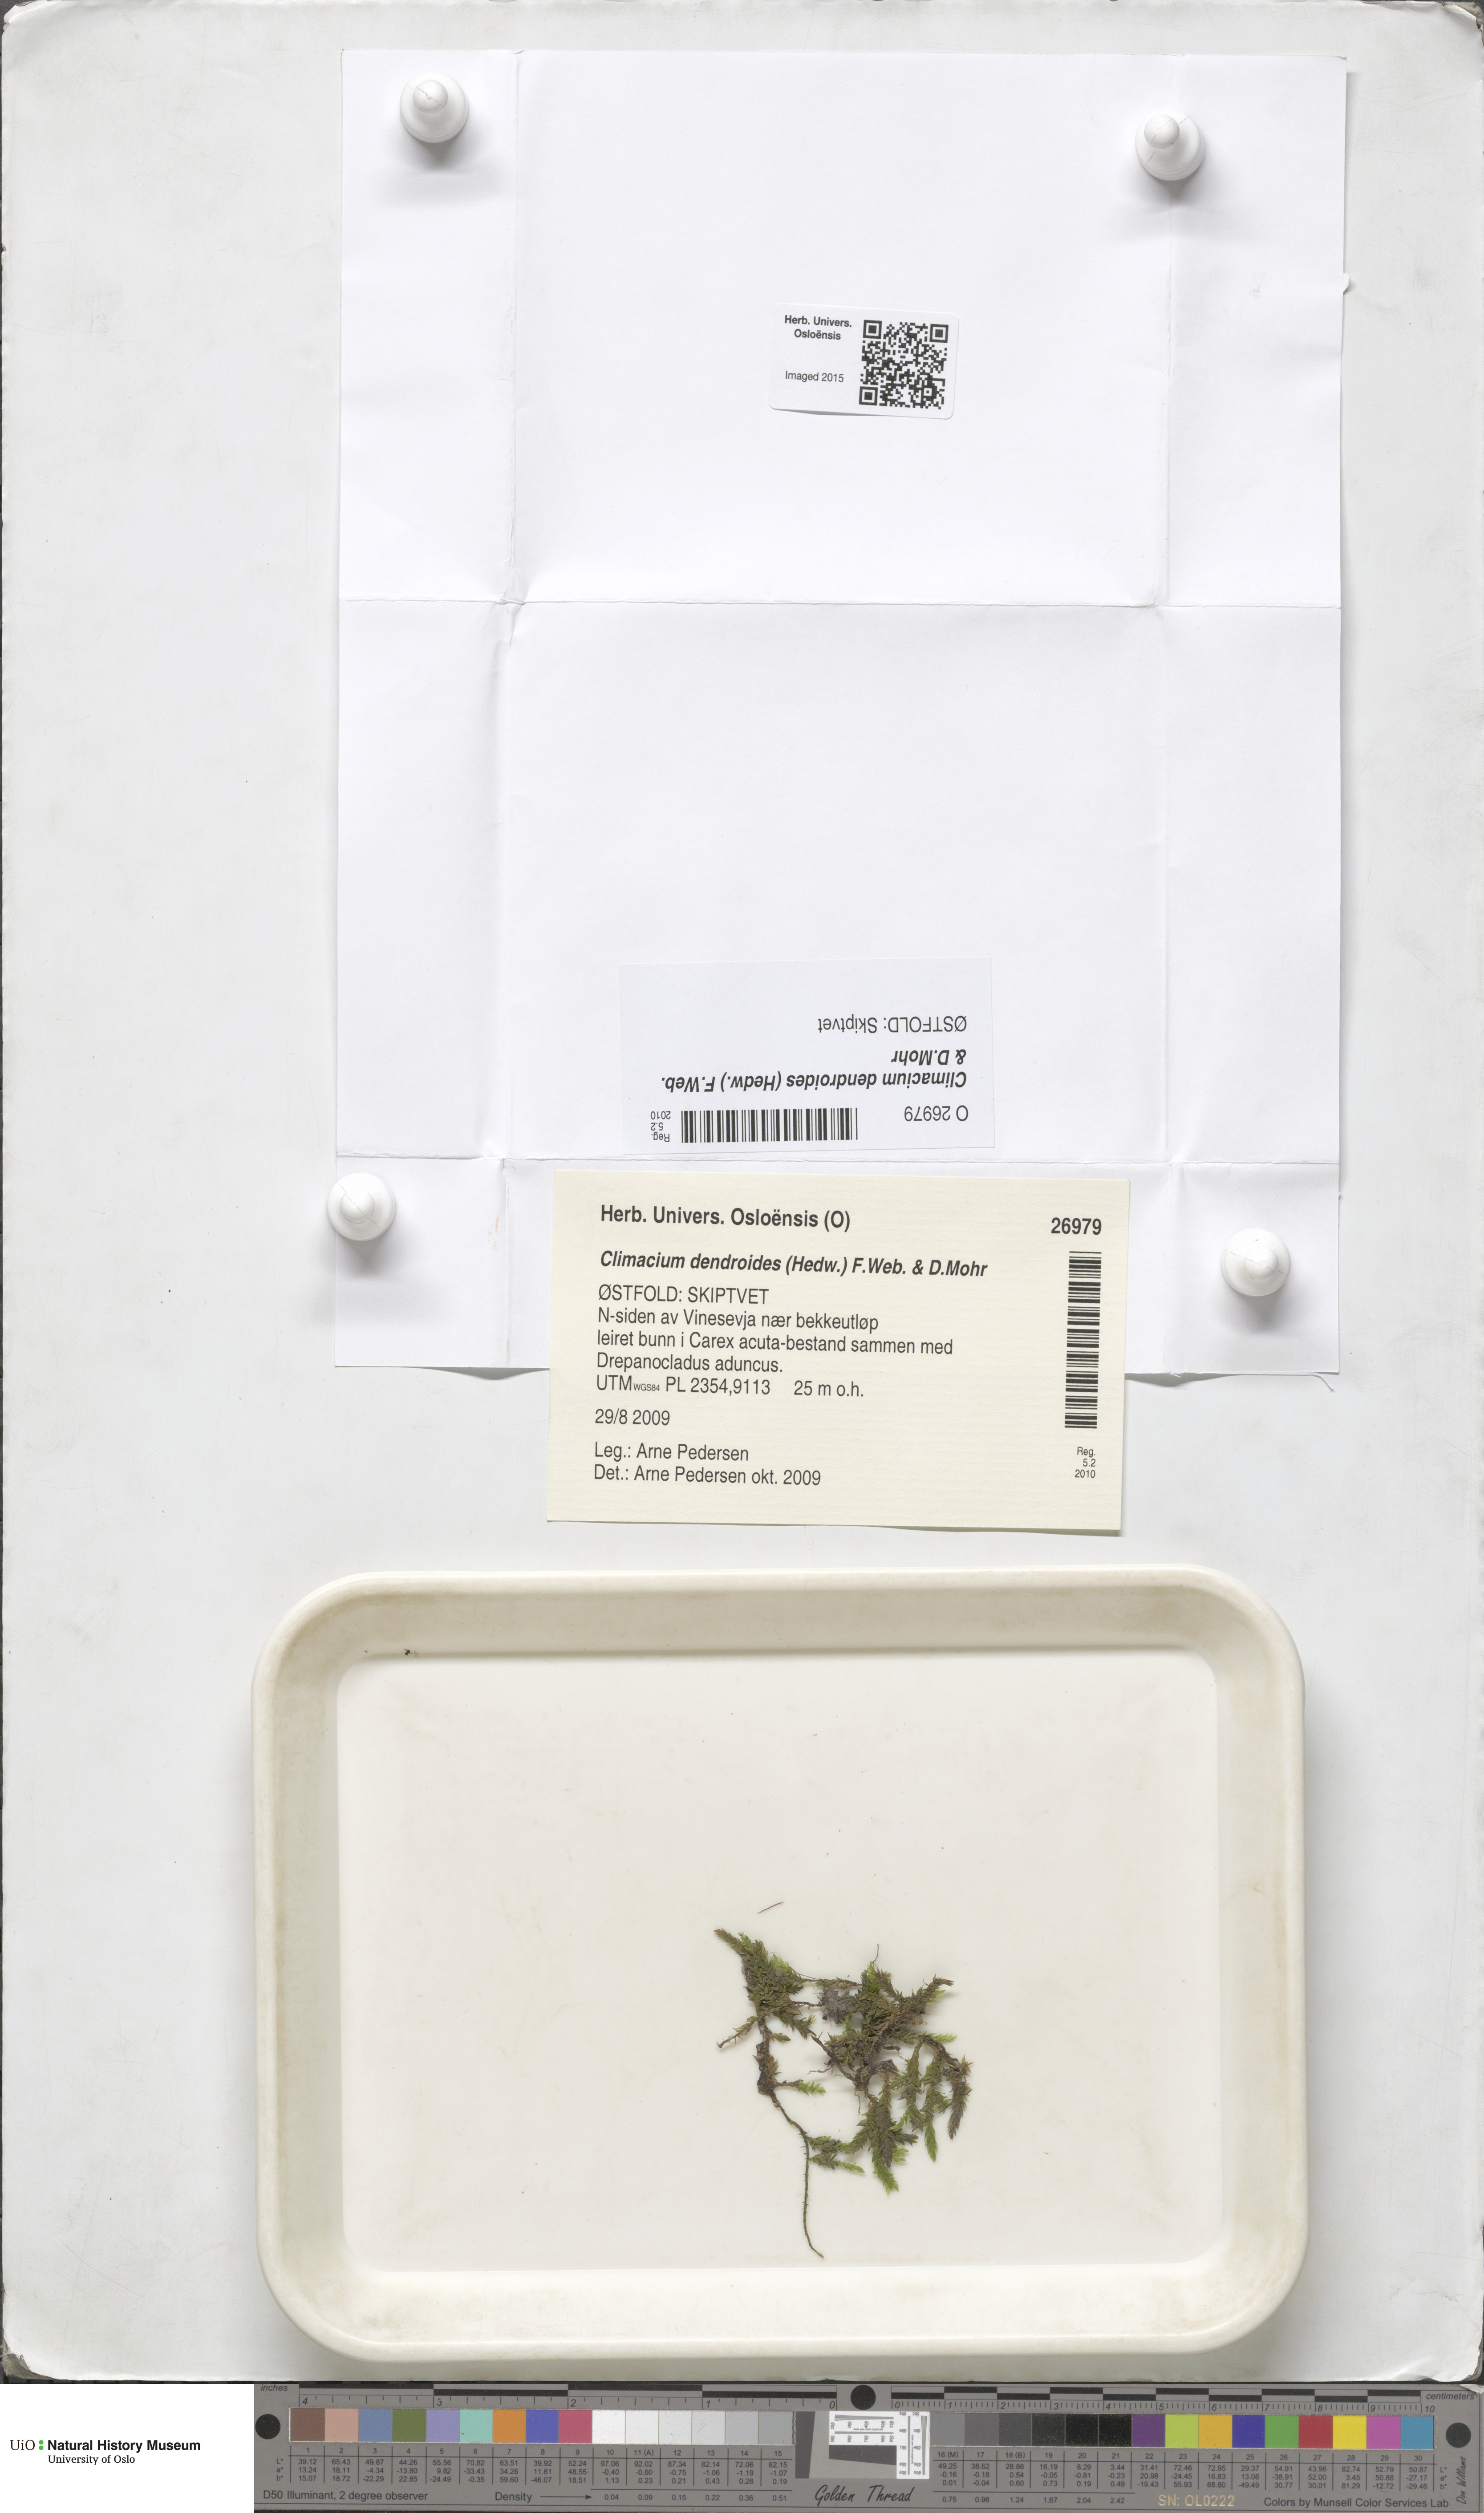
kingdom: Plantae
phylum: Bryophyta
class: Bryopsida
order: Hypnales
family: Climaciaceae
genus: Climacium
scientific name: Climacium dendroides
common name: Northern tree moss
